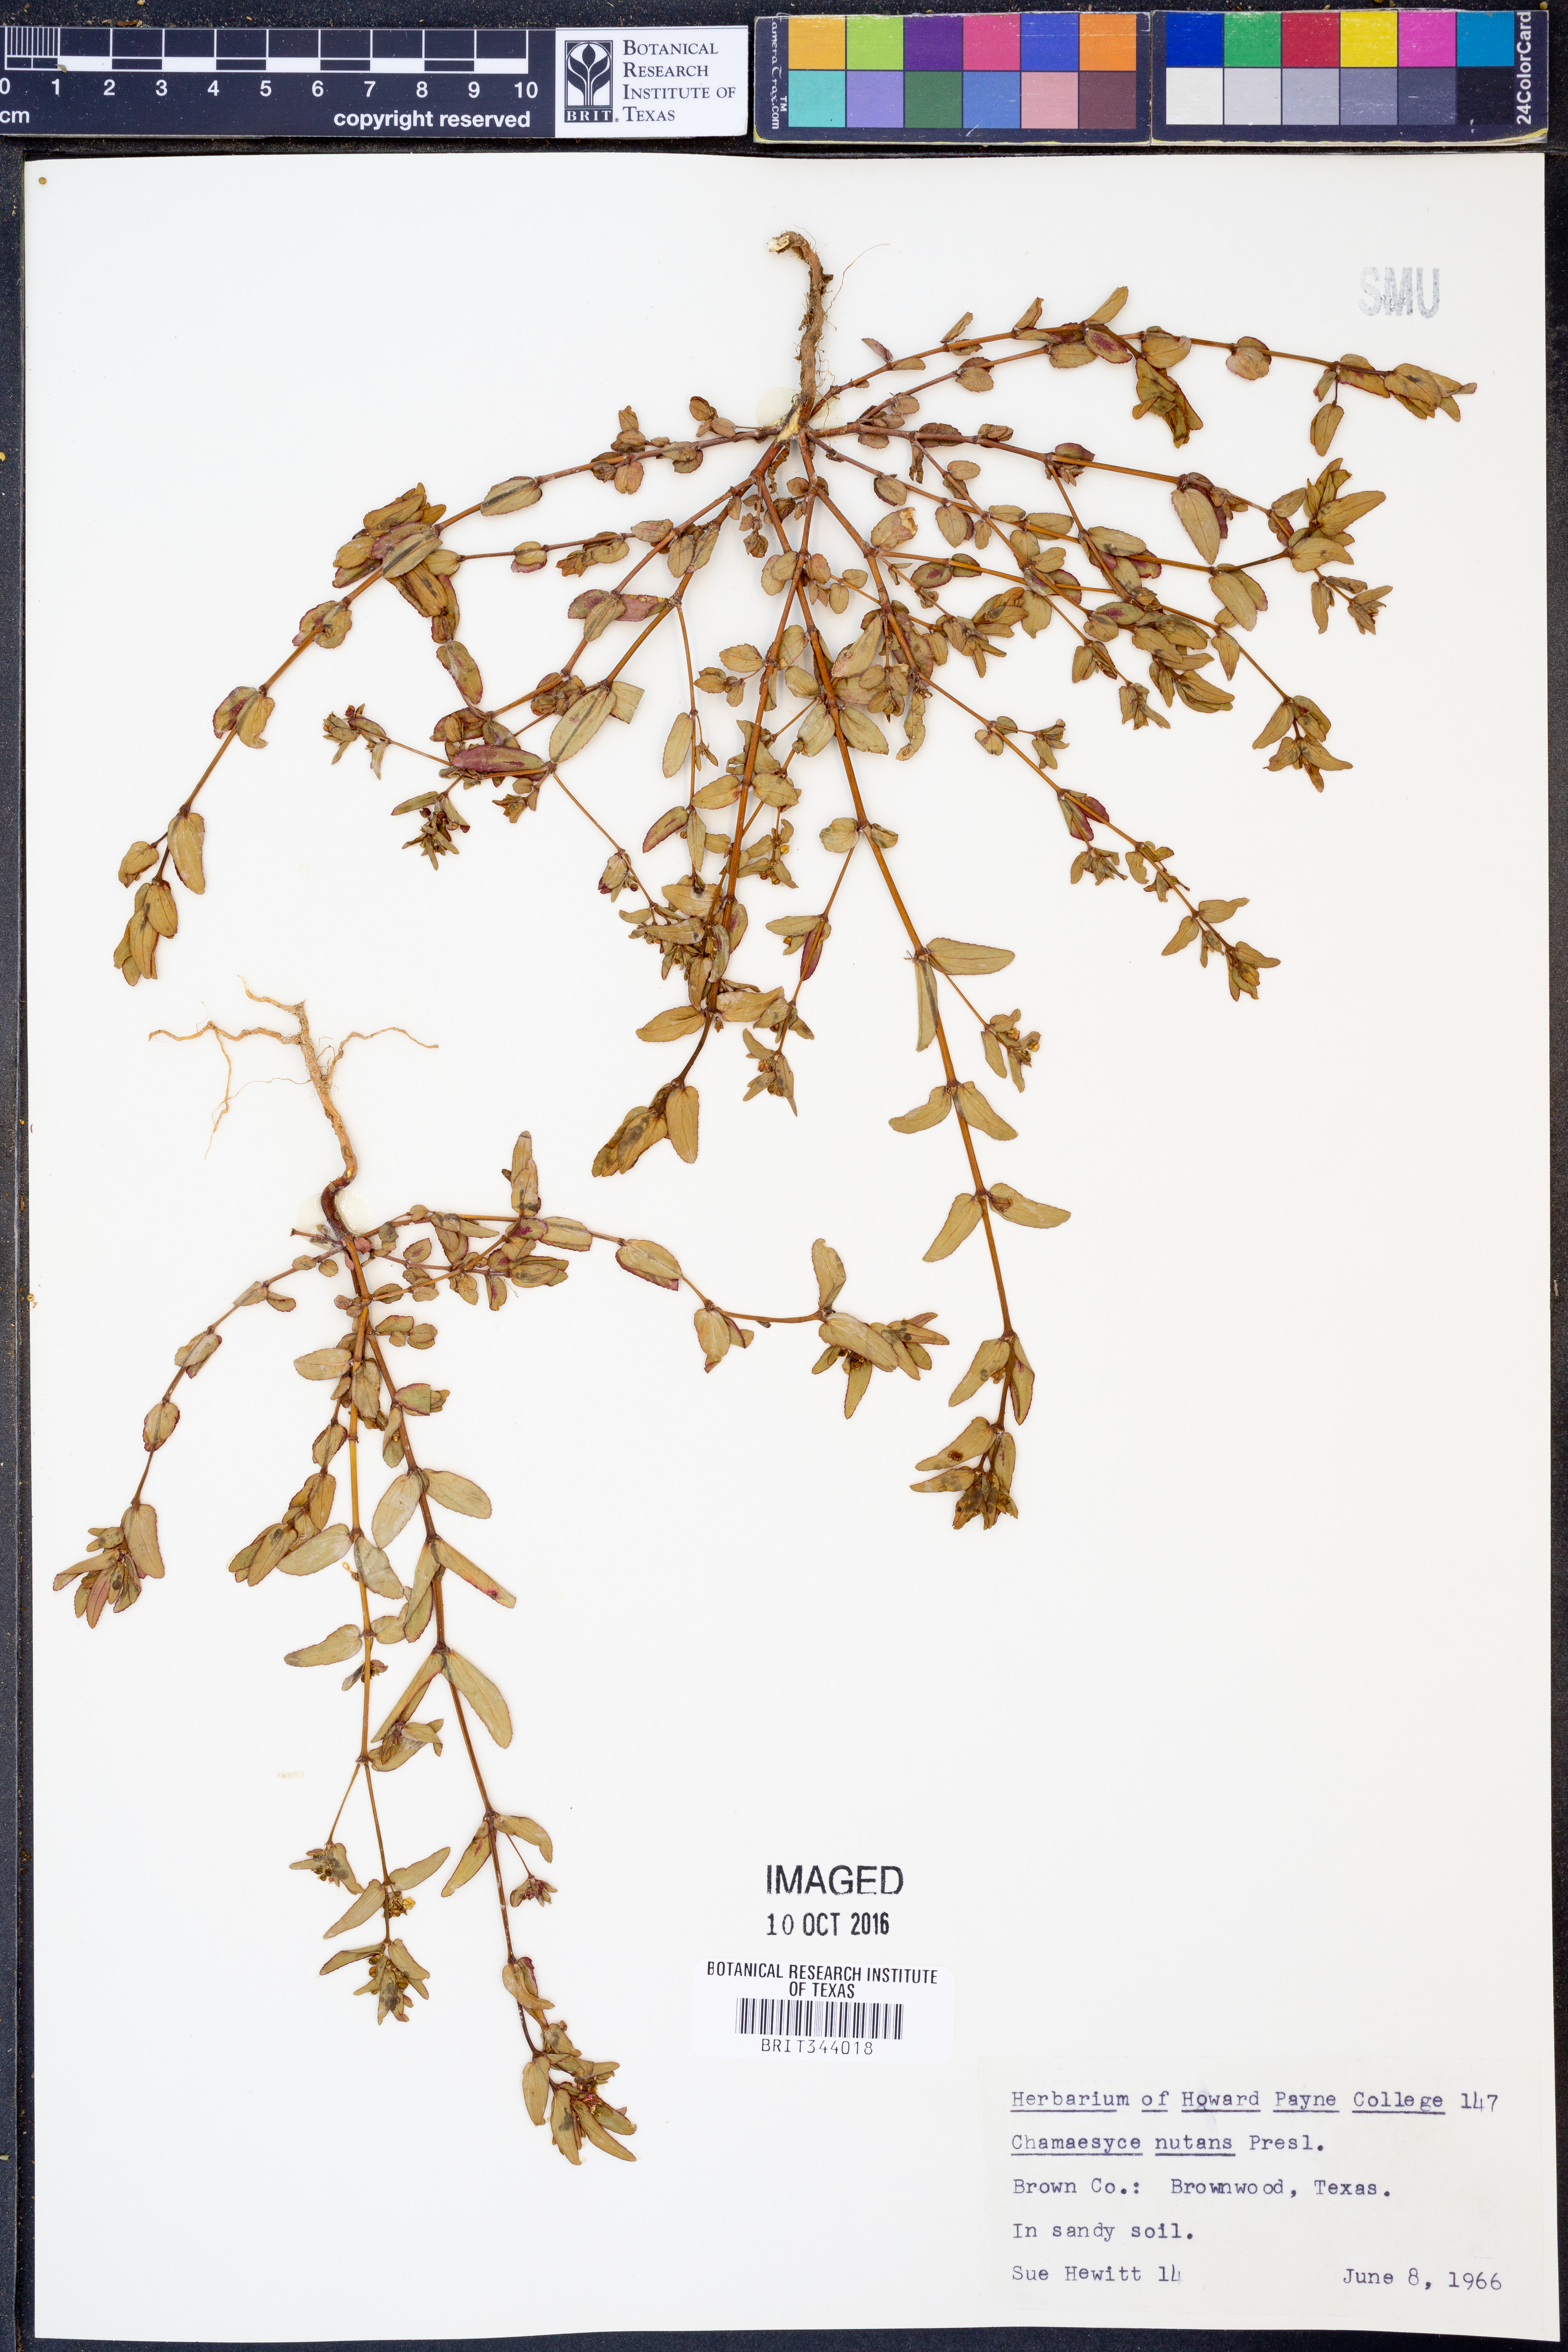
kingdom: Plantae
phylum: Tracheophyta
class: Magnoliopsida
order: Malpighiales
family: Euphorbiaceae
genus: Euphorbia
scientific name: Euphorbia nutans
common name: Eyebane
